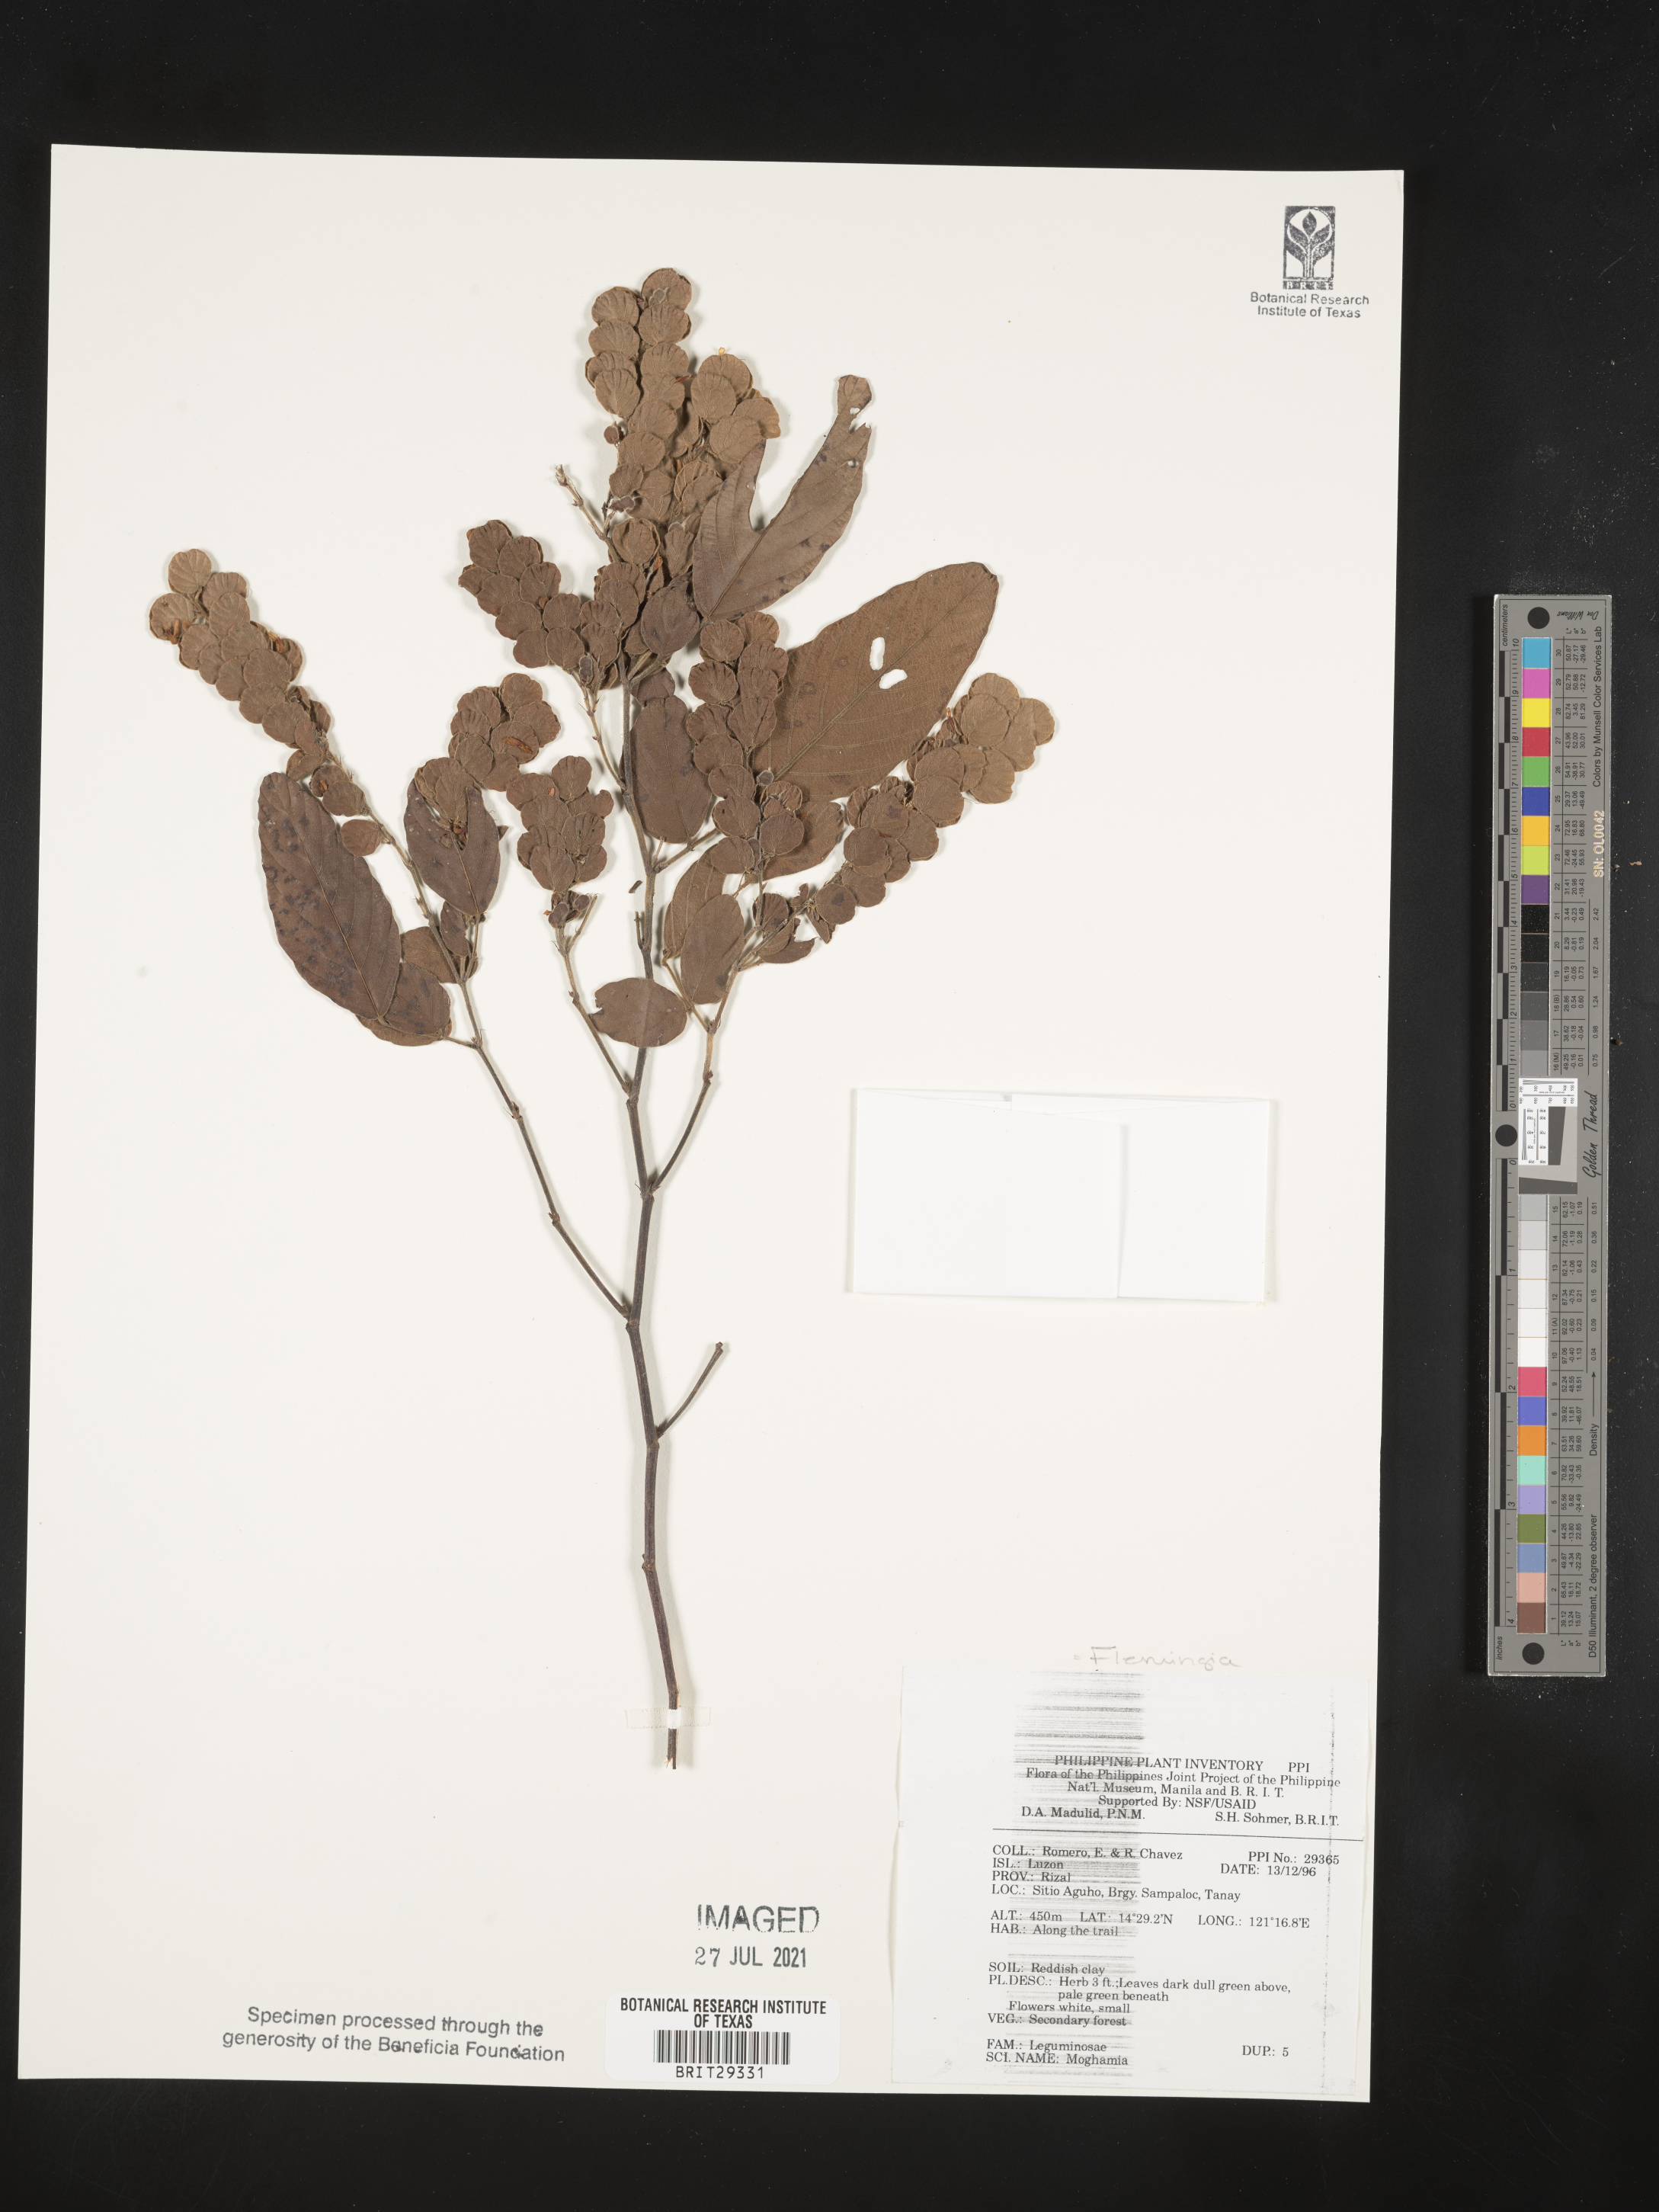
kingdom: Plantae
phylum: Tracheophyta
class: Magnoliopsida
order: Fabales
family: Fabaceae
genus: Flemingia
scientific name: Flemingia
